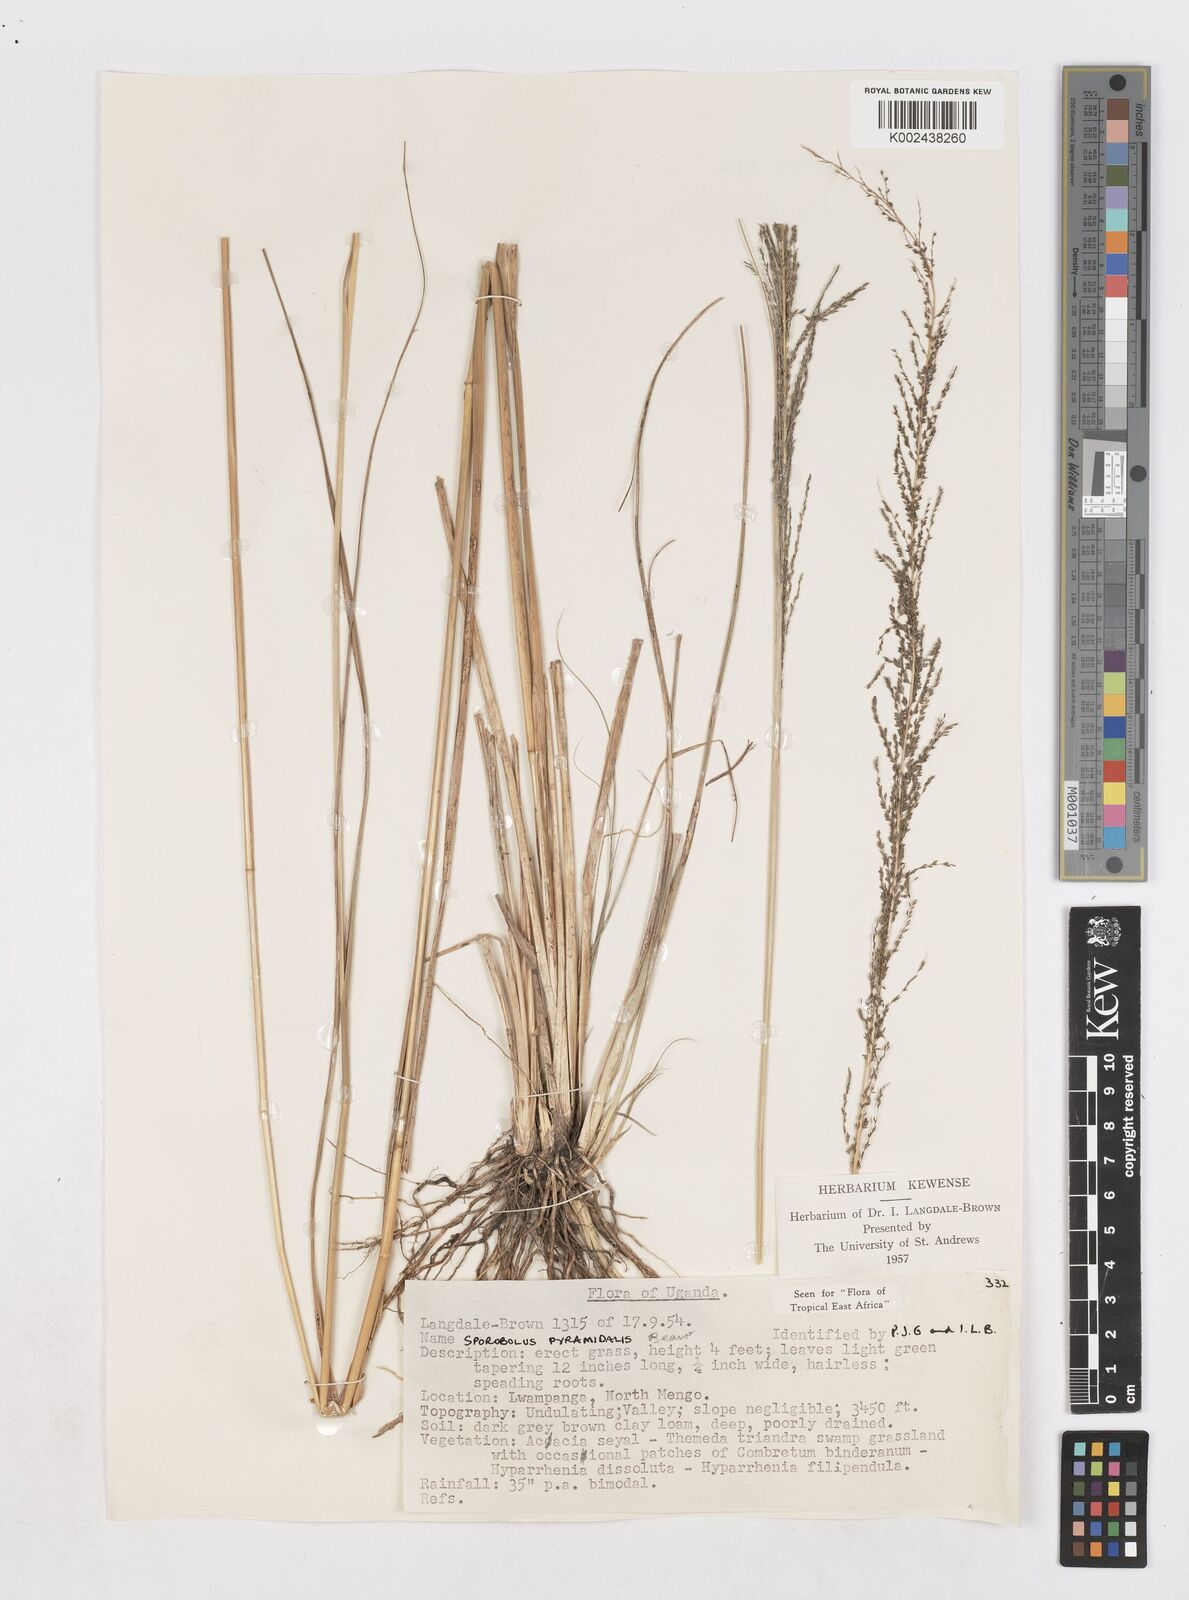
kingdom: Plantae
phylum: Tracheophyta
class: Liliopsida
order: Poales
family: Poaceae
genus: Sporobolus
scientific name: Sporobolus pyramidalis
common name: West indian dropseed
